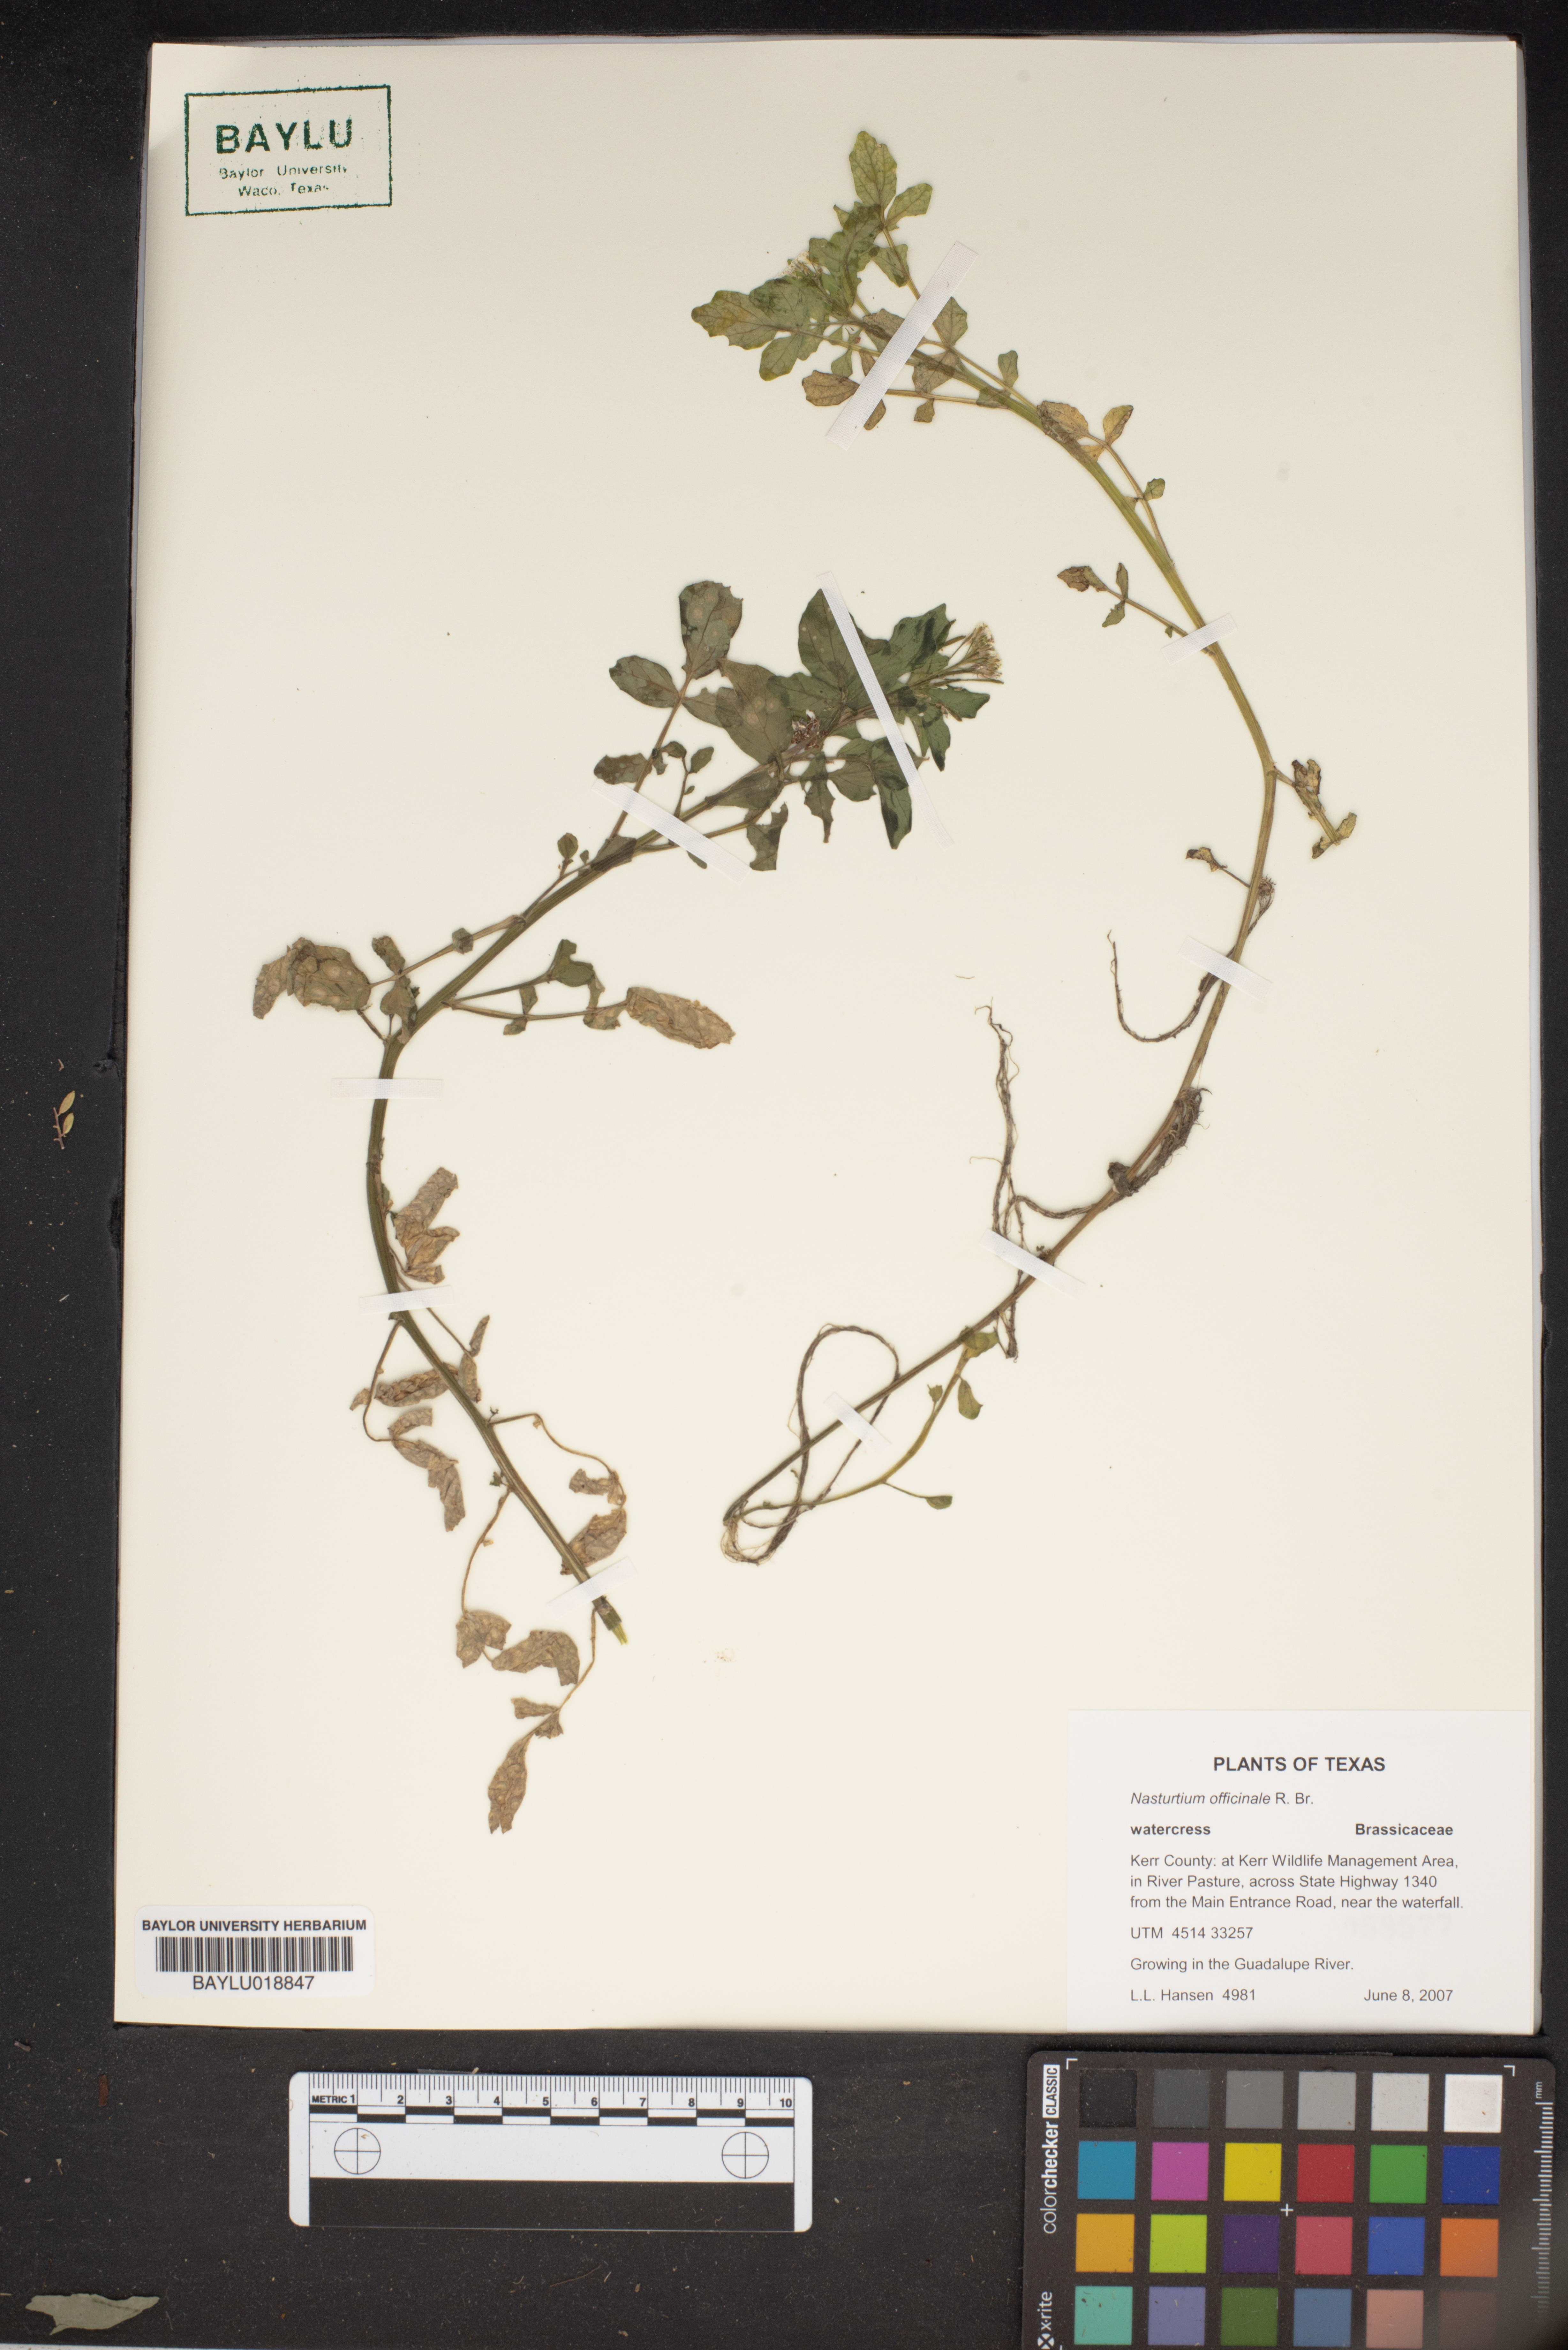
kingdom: Plantae
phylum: Tracheophyta
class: Magnoliopsida
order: Brassicales
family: Brassicaceae
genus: Nasturtium
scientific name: Nasturtium officinale
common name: Watercress
